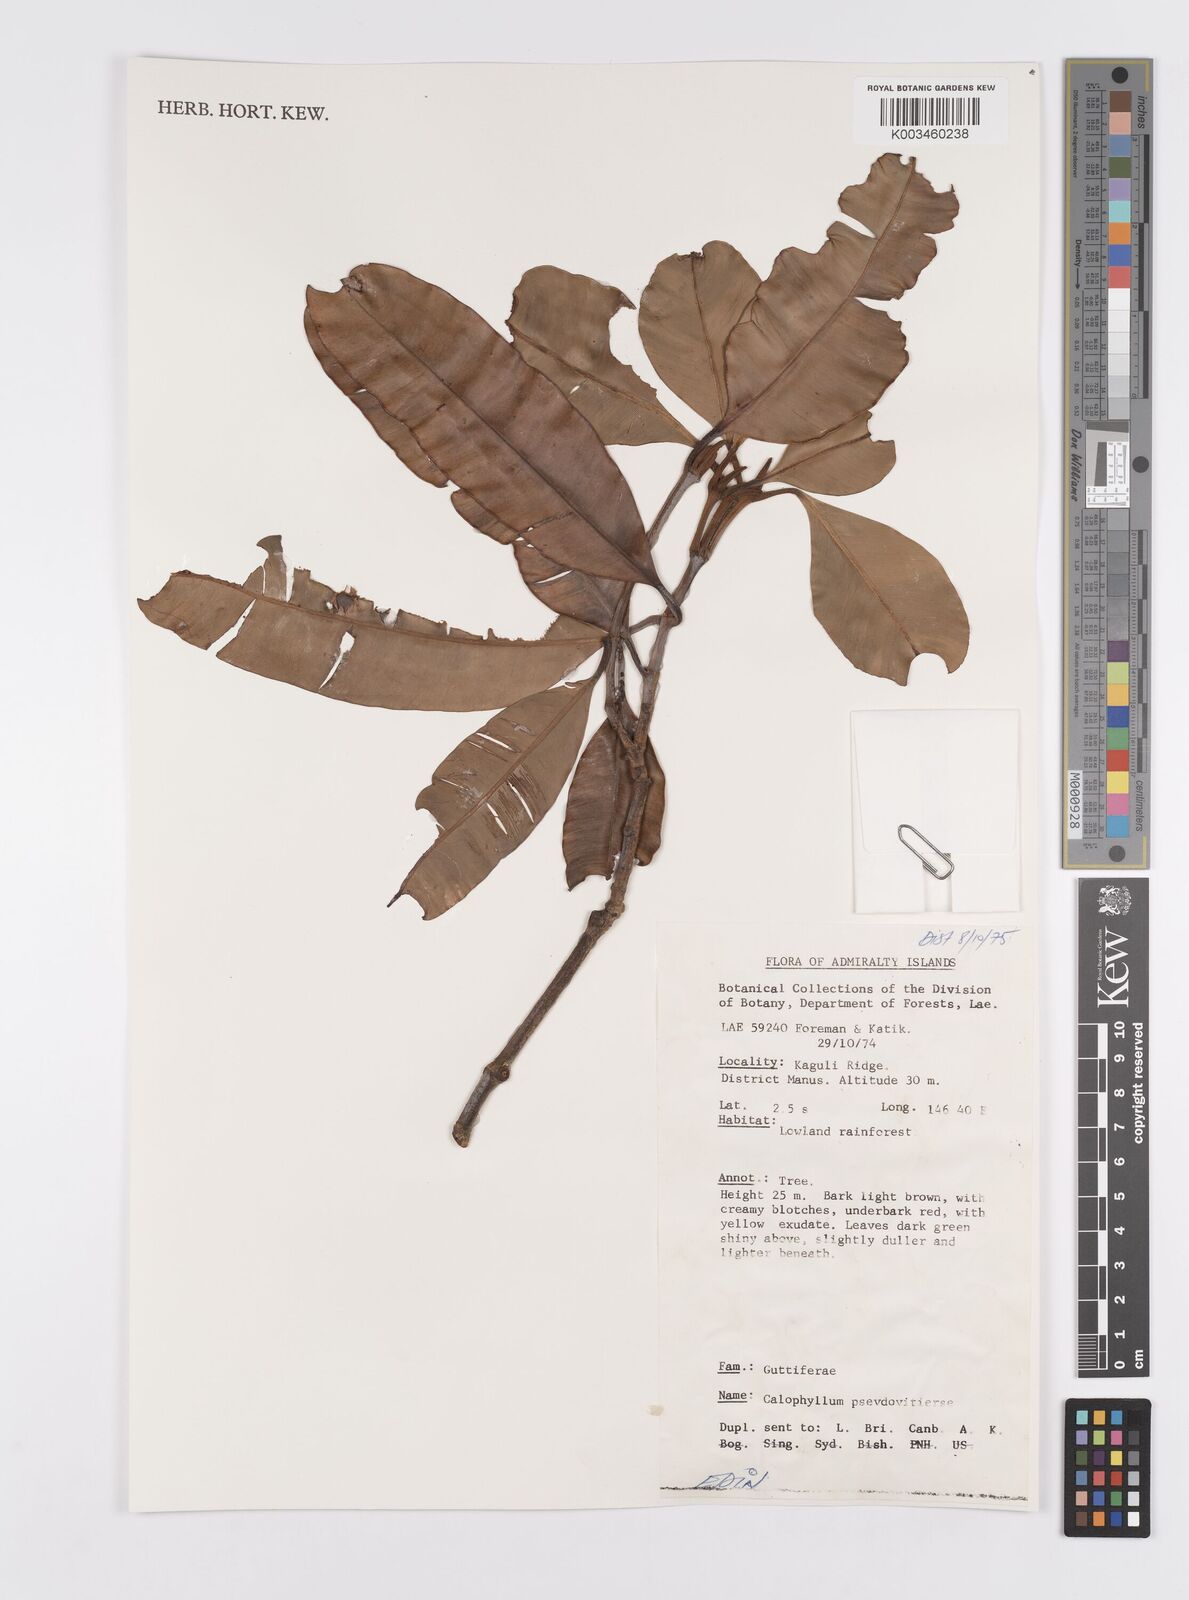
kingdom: Plantae
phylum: Tracheophyta
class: Magnoliopsida
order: Malpighiales
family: Calophyllaceae
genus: Calophyllum
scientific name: Calophyllum neoebudicum
